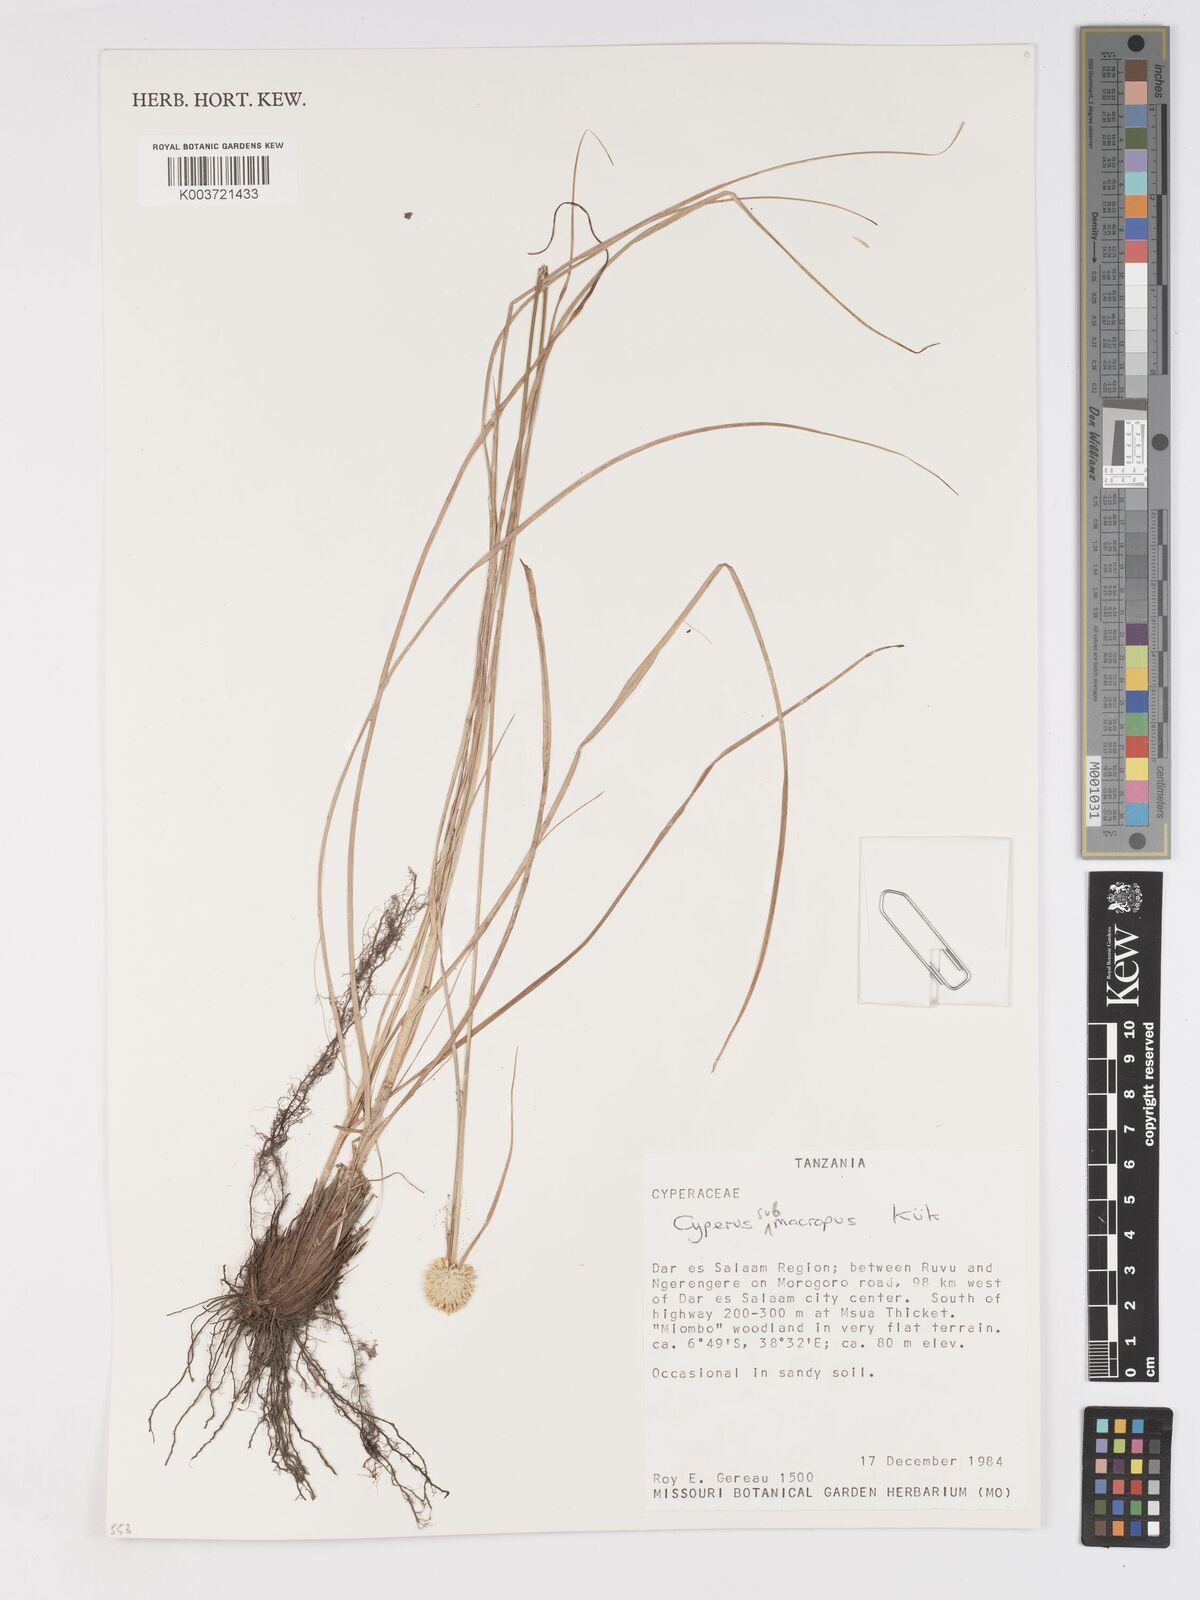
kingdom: Plantae
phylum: Tracheophyta
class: Liliopsida
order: Poales
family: Cyperaceae
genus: Cyperus
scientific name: Cyperus mollipes
